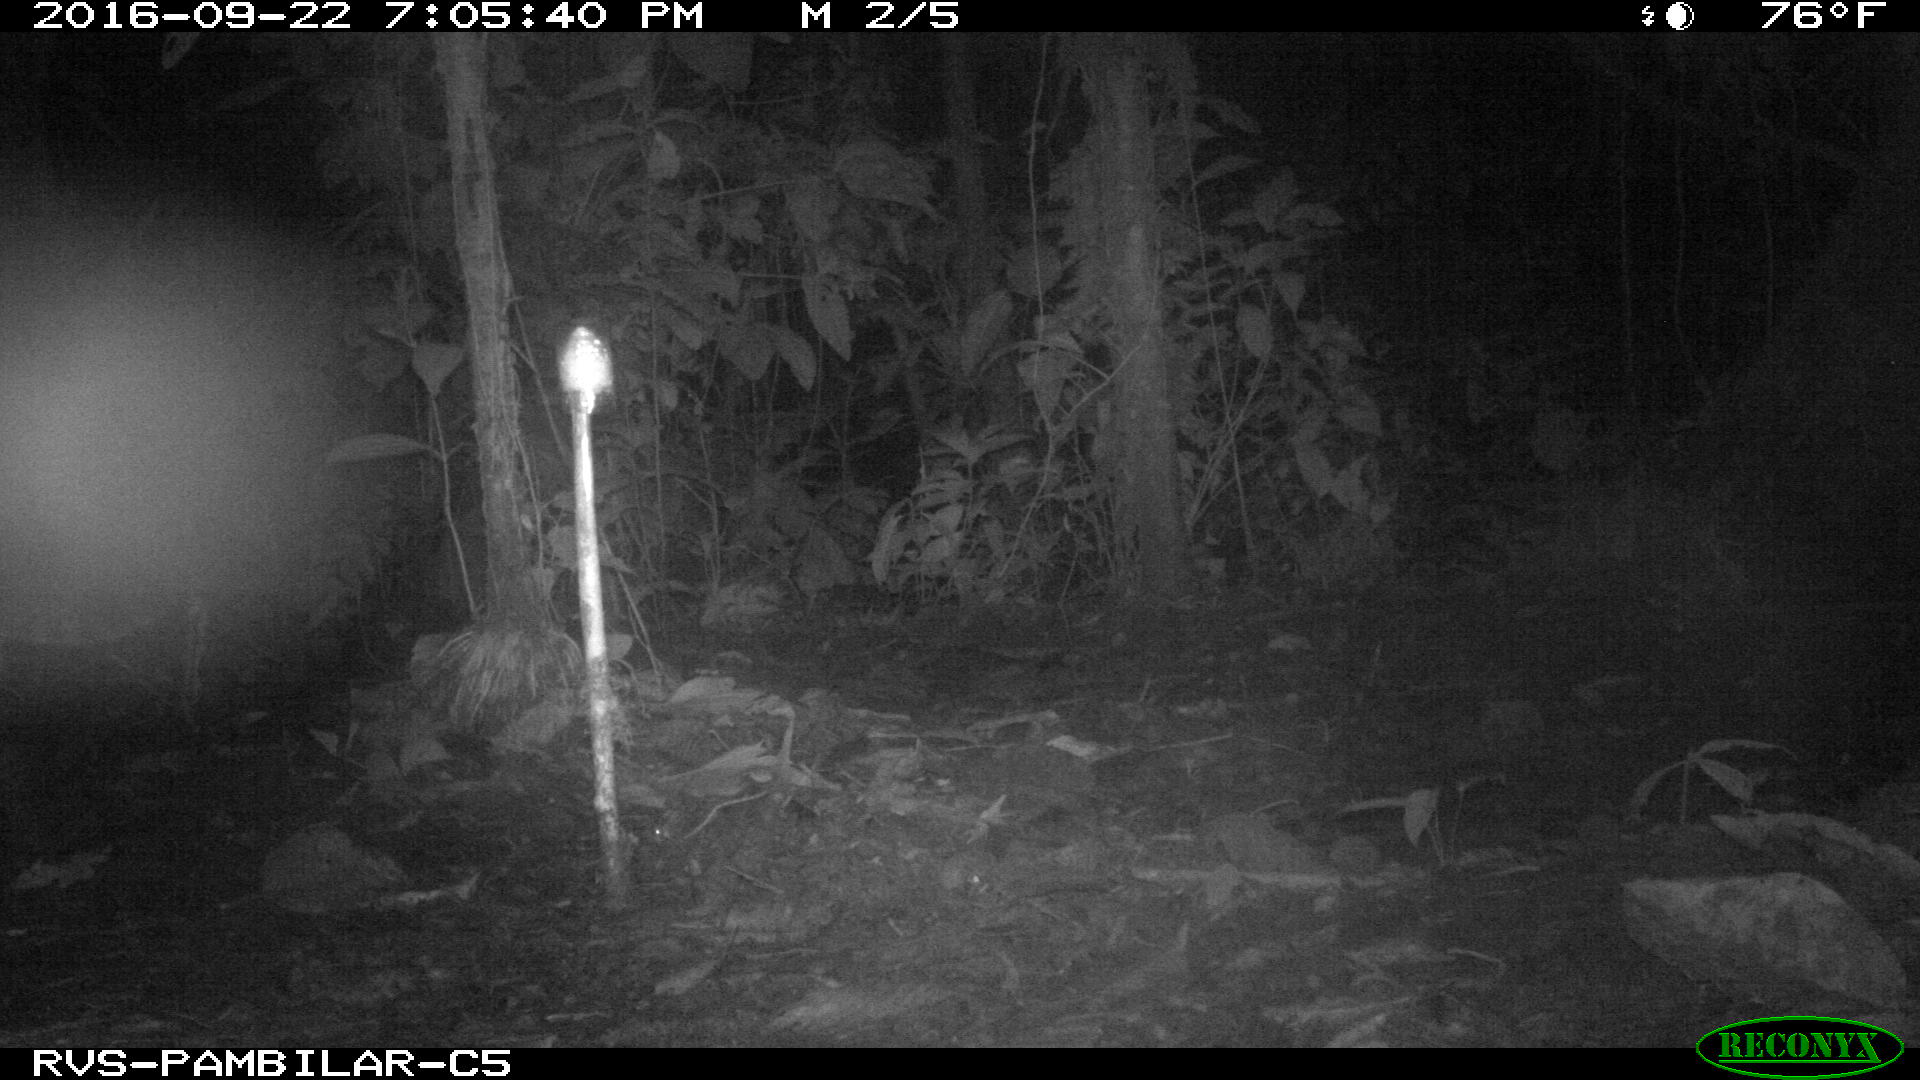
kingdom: Animalia
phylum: Chordata
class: Mammalia
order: Carnivora
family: Felidae
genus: Leopardus
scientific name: Leopardus pardalis
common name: Ocelot
